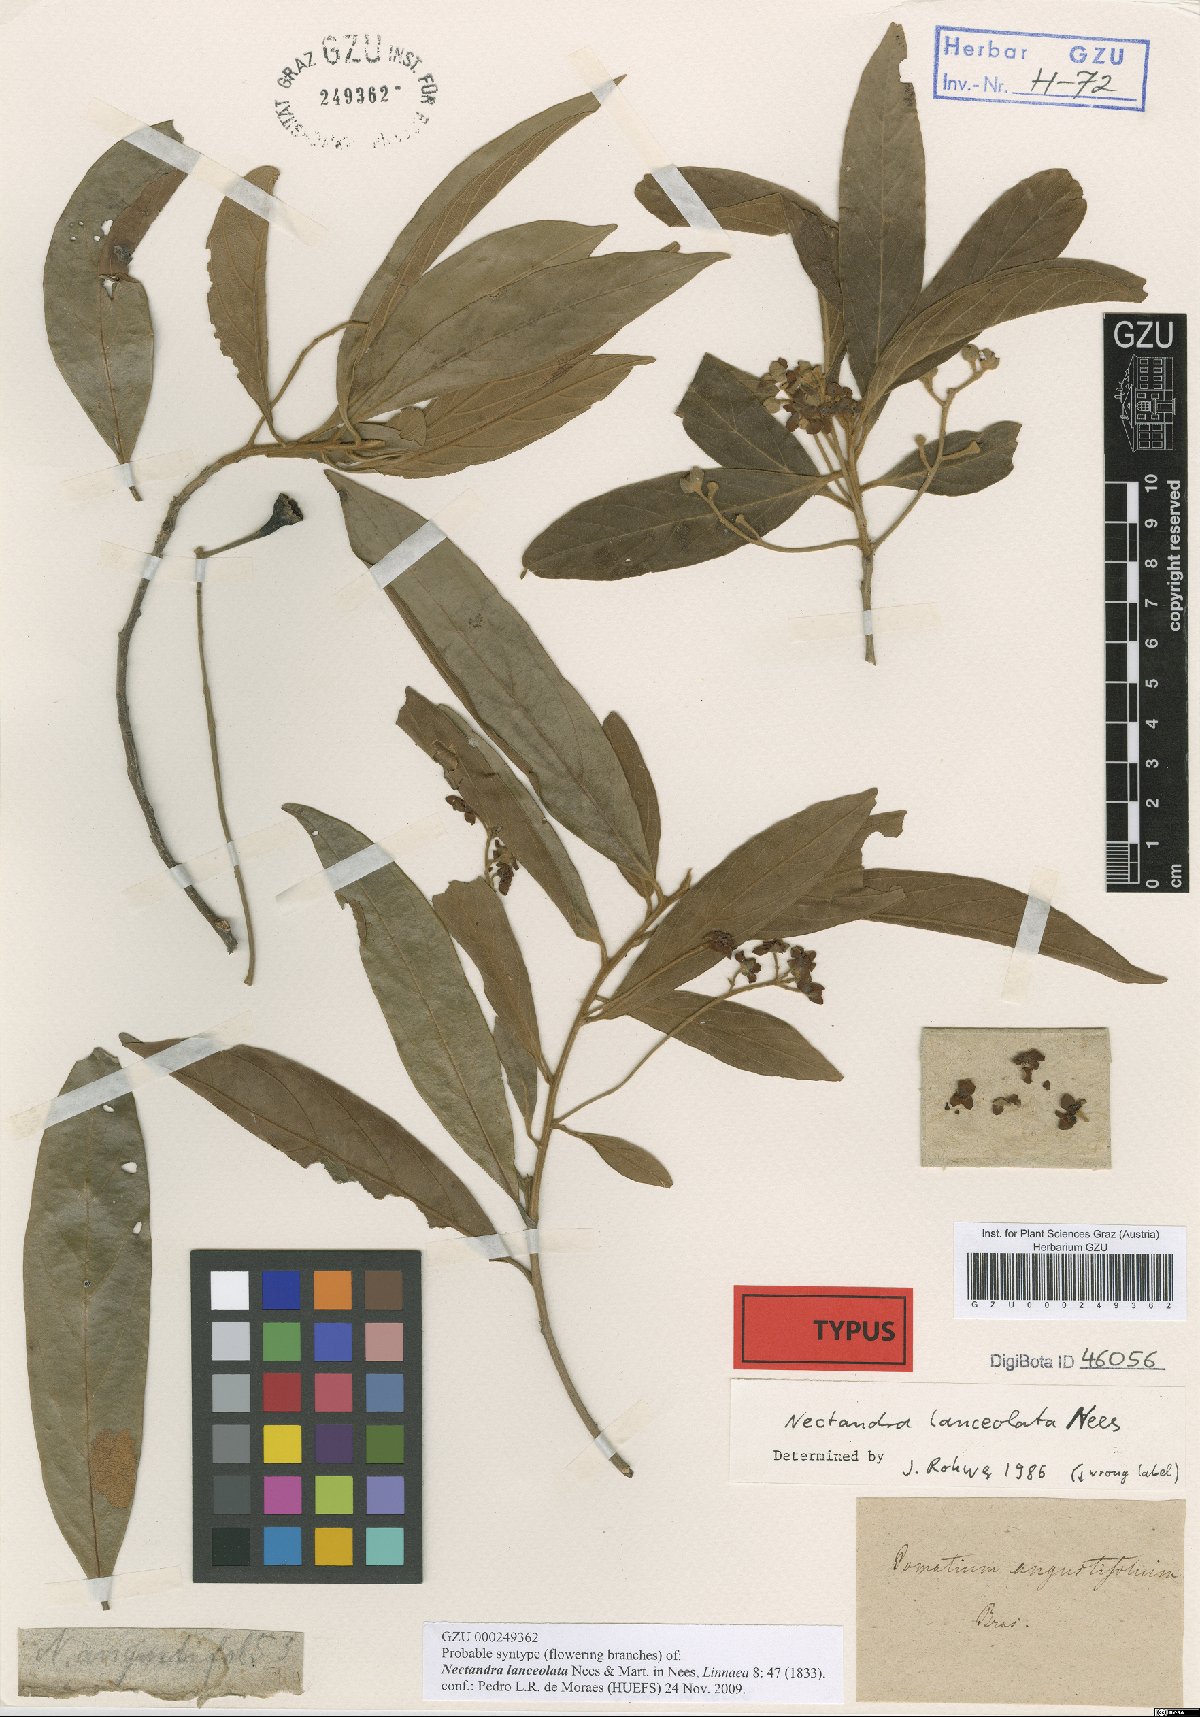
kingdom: Plantae
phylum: Tracheophyta
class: Magnoliopsida
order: Laurales
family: Lauraceae
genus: Nectandra
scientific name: Nectandra lanceolata
